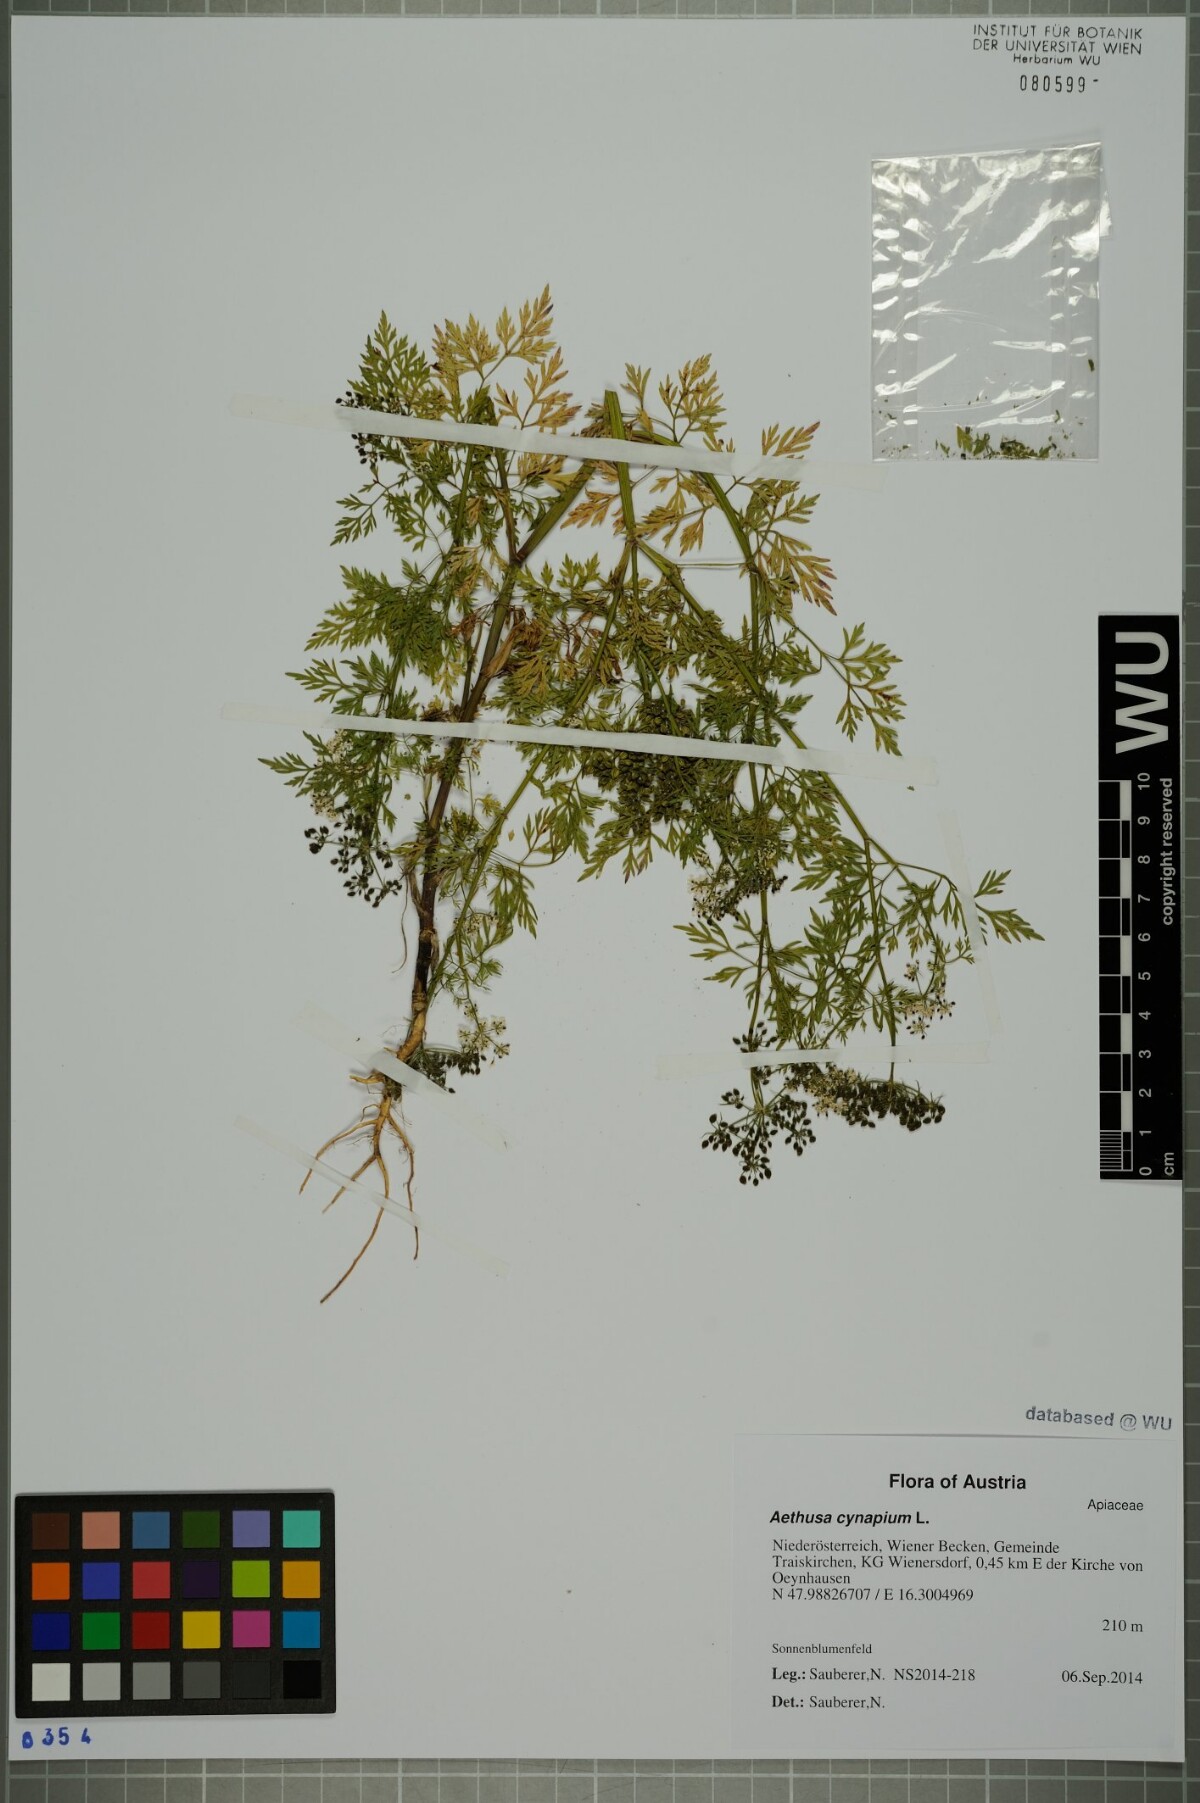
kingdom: Plantae
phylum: Tracheophyta
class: Magnoliopsida
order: Apiales
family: Apiaceae
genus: Aethusa
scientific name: Aethusa cynapium
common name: Fool's parsley
